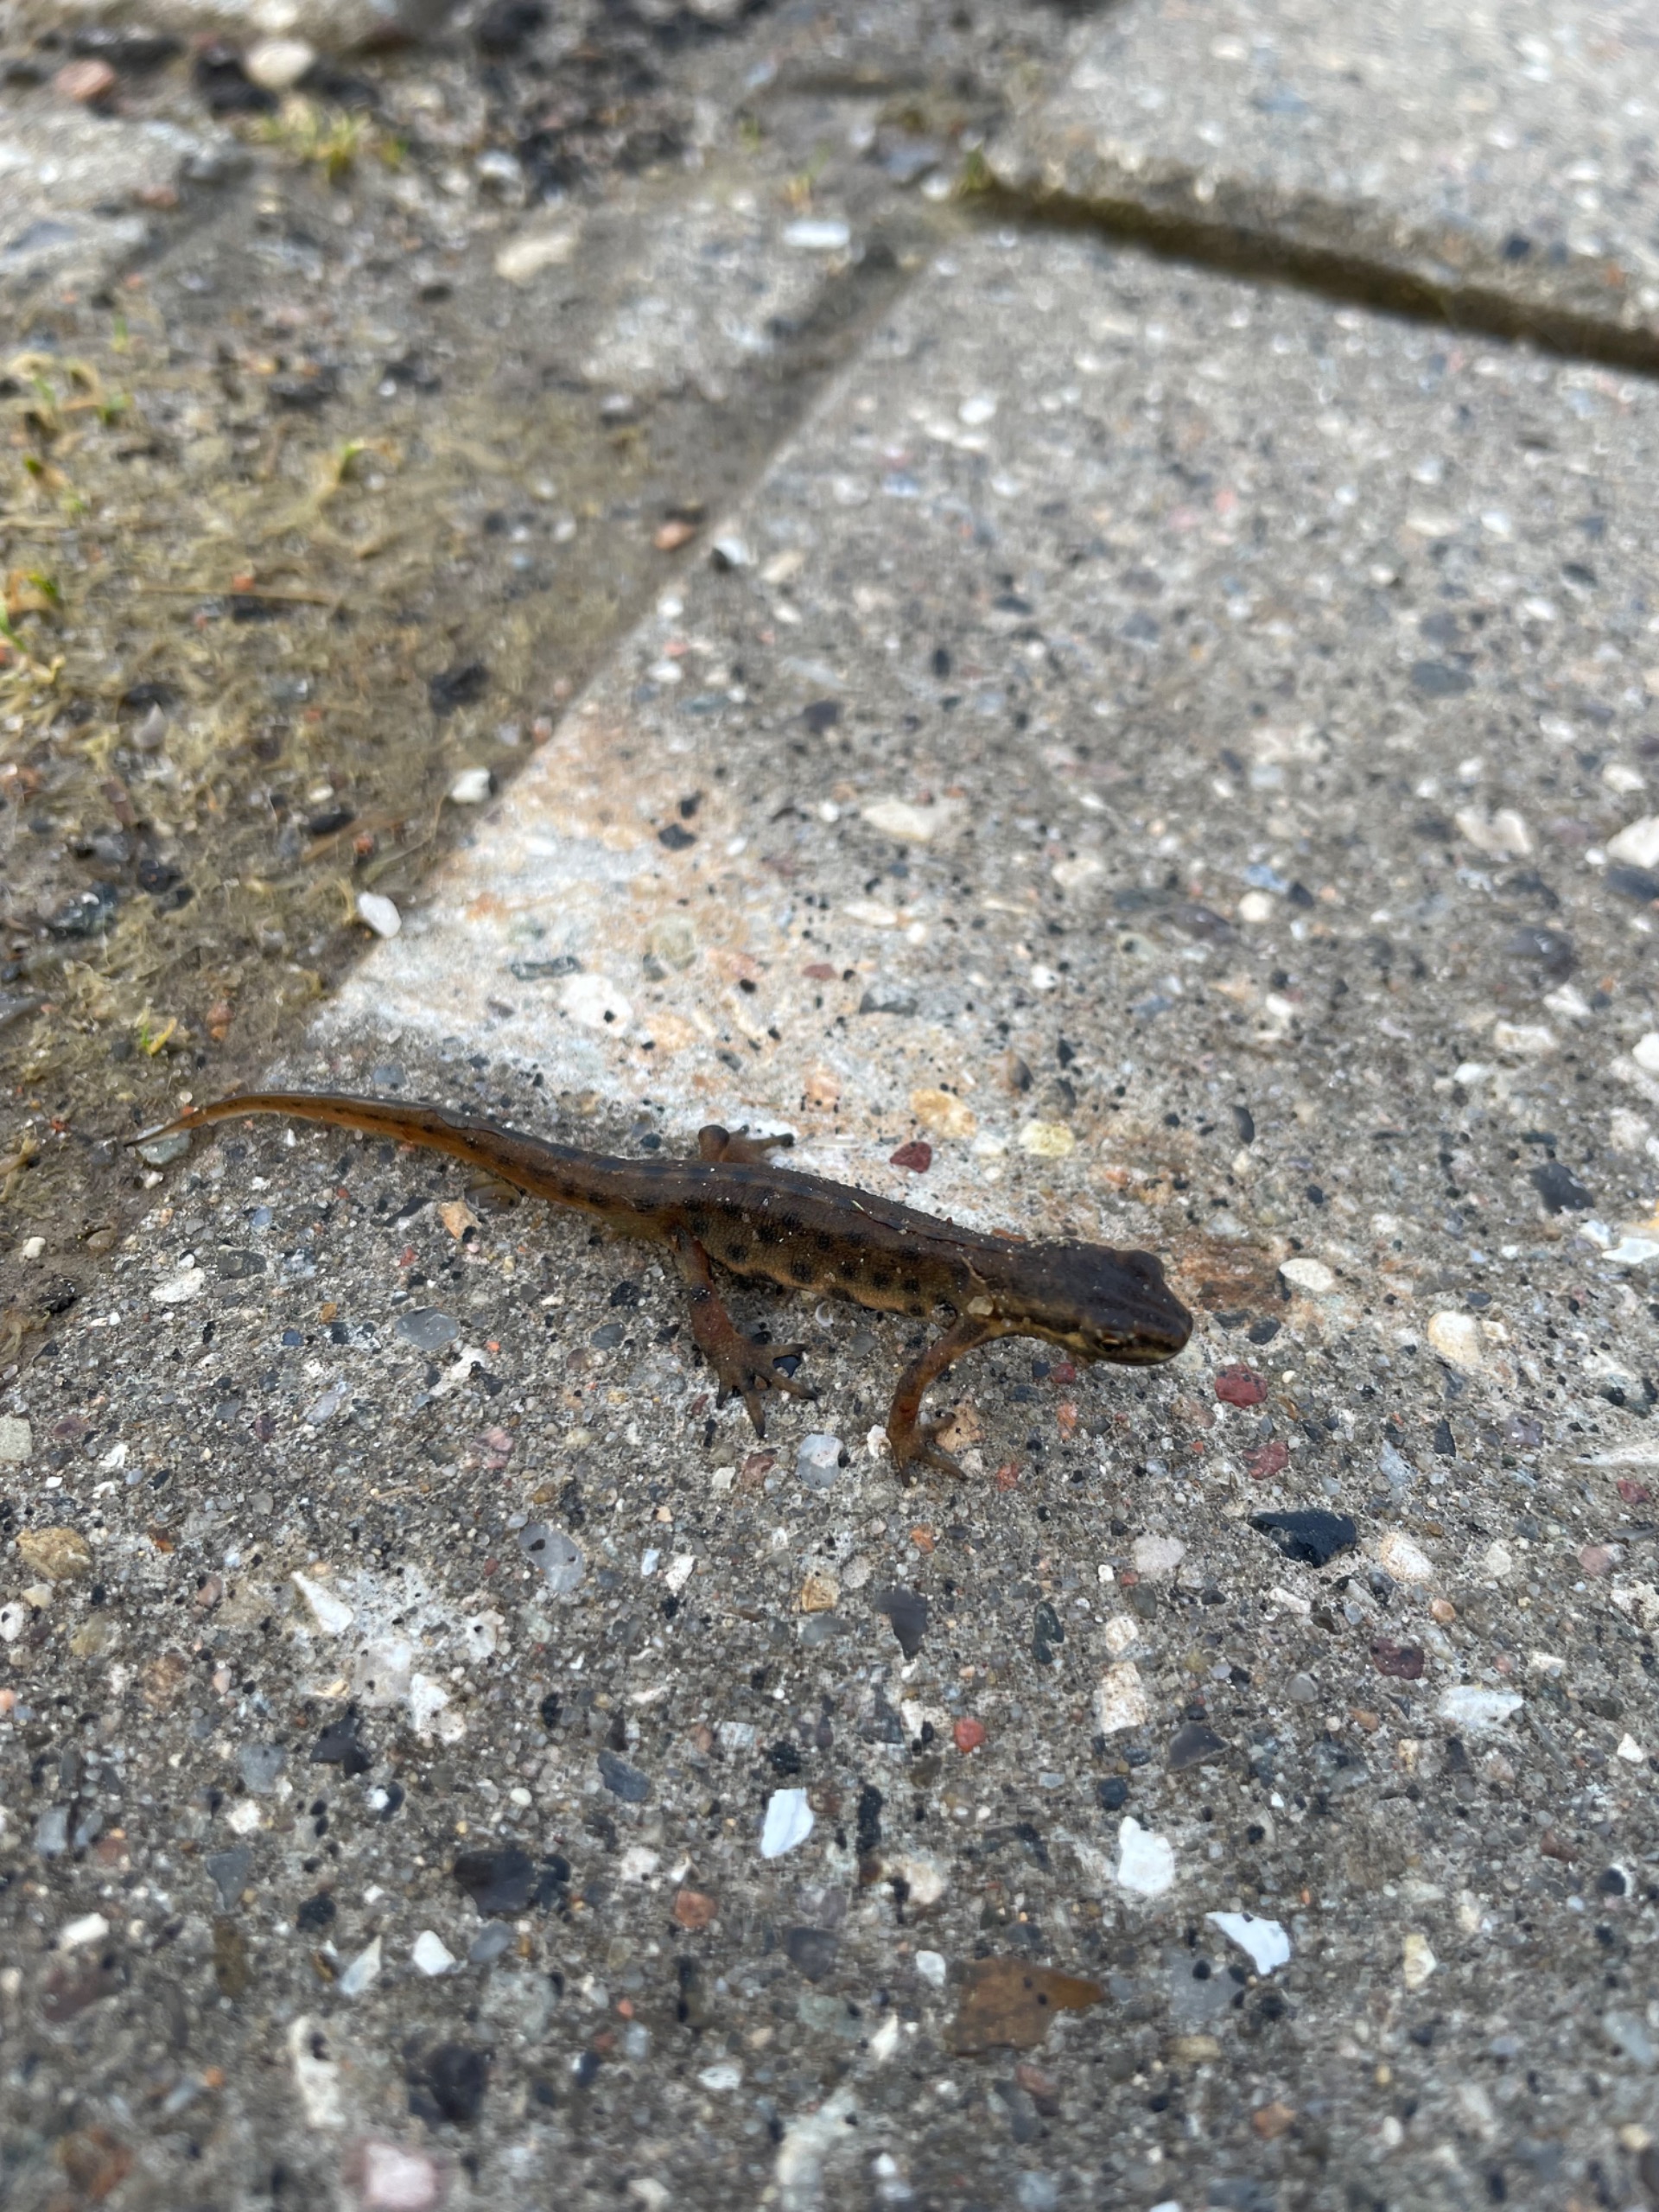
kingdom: Animalia
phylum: Chordata
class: Amphibia
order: Caudata
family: Salamandridae
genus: Lissotriton
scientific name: Lissotriton vulgaris
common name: Lille vandsalamander
